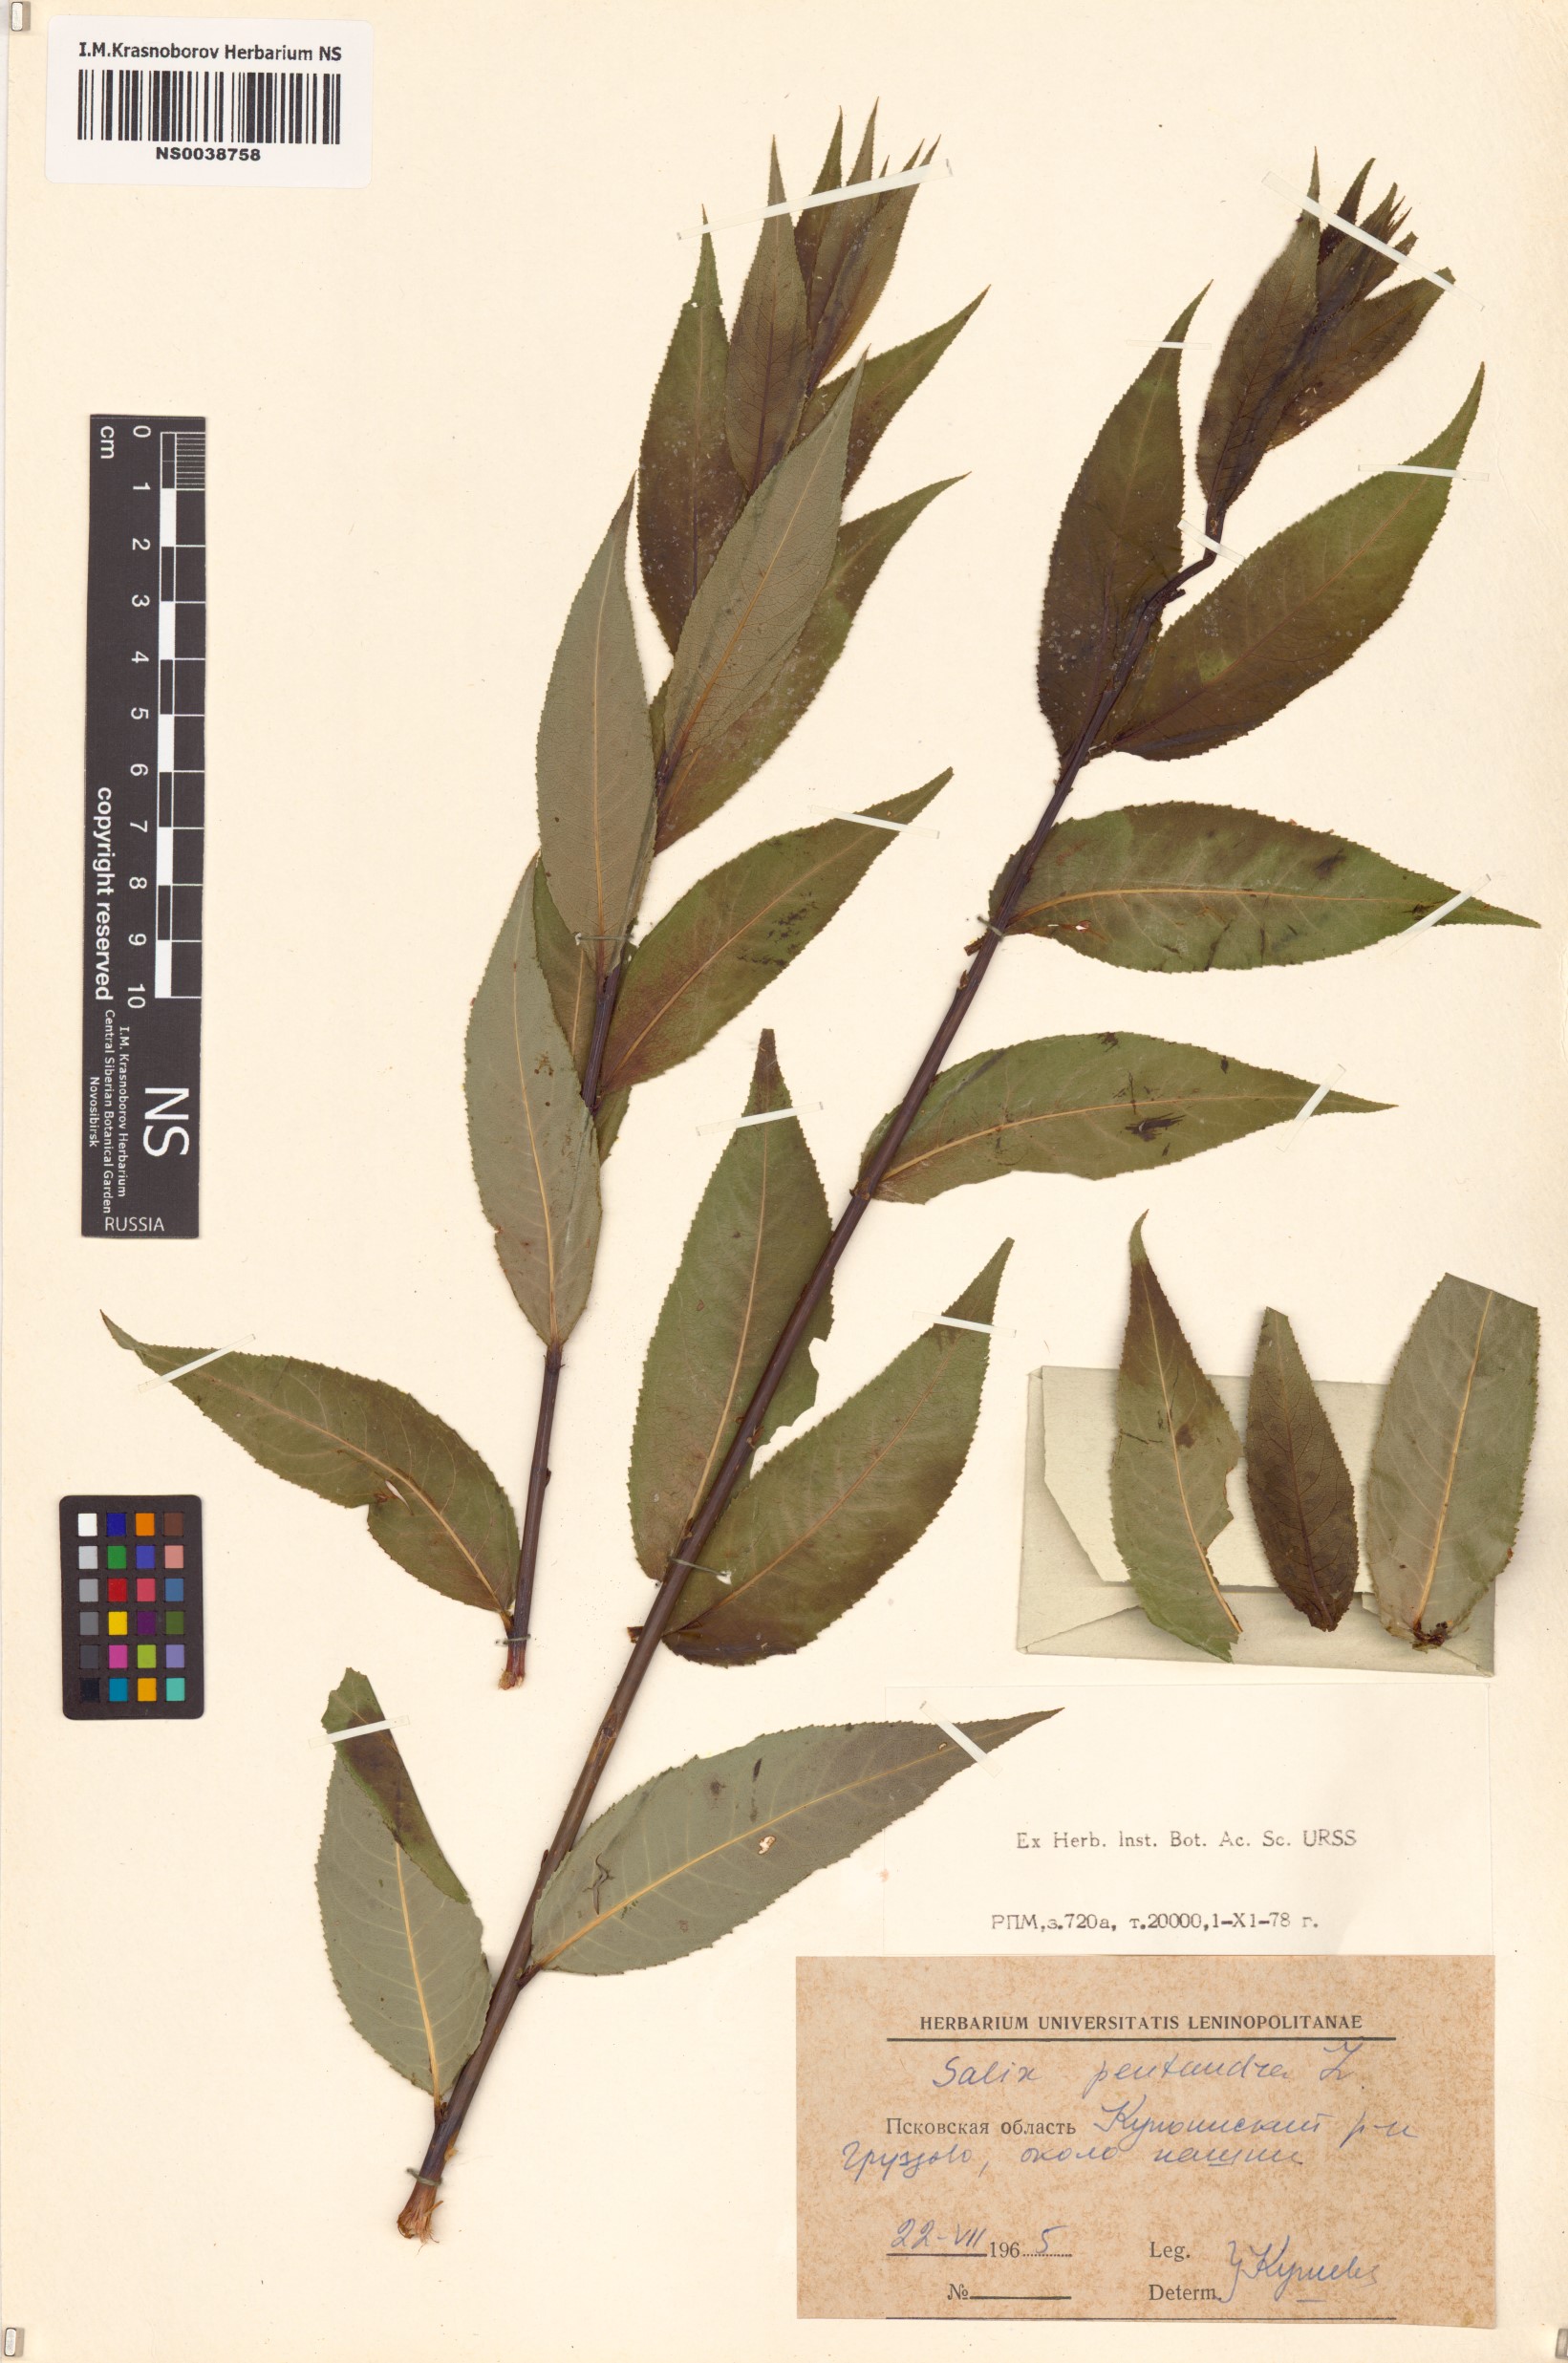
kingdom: Plantae
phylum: Tracheophyta
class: Magnoliopsida
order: Malpighiales
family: Salicaceae
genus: Salix
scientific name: Salix pentandra
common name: Bay willow
